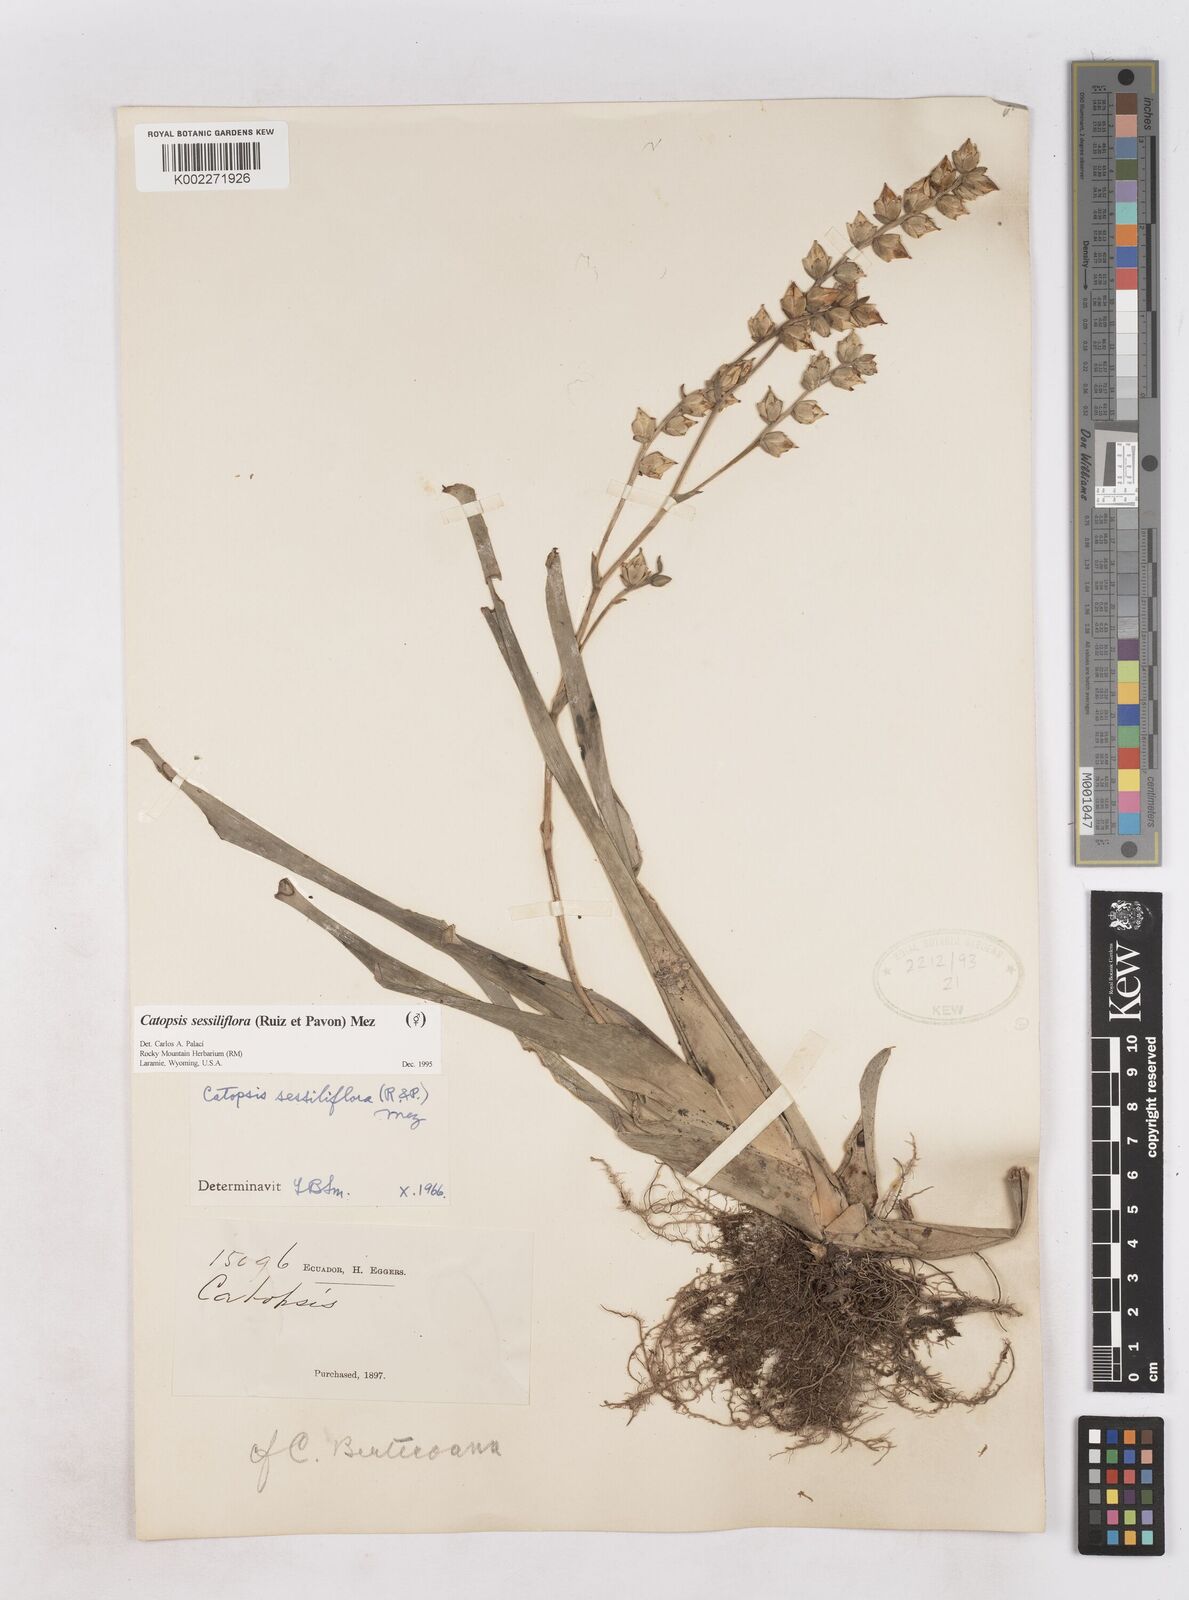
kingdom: Plantae
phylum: Tracheophyta
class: Liliopsida
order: Poales
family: Bromeliaceae
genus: Catopsis
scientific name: Catopsis sessiliflora
